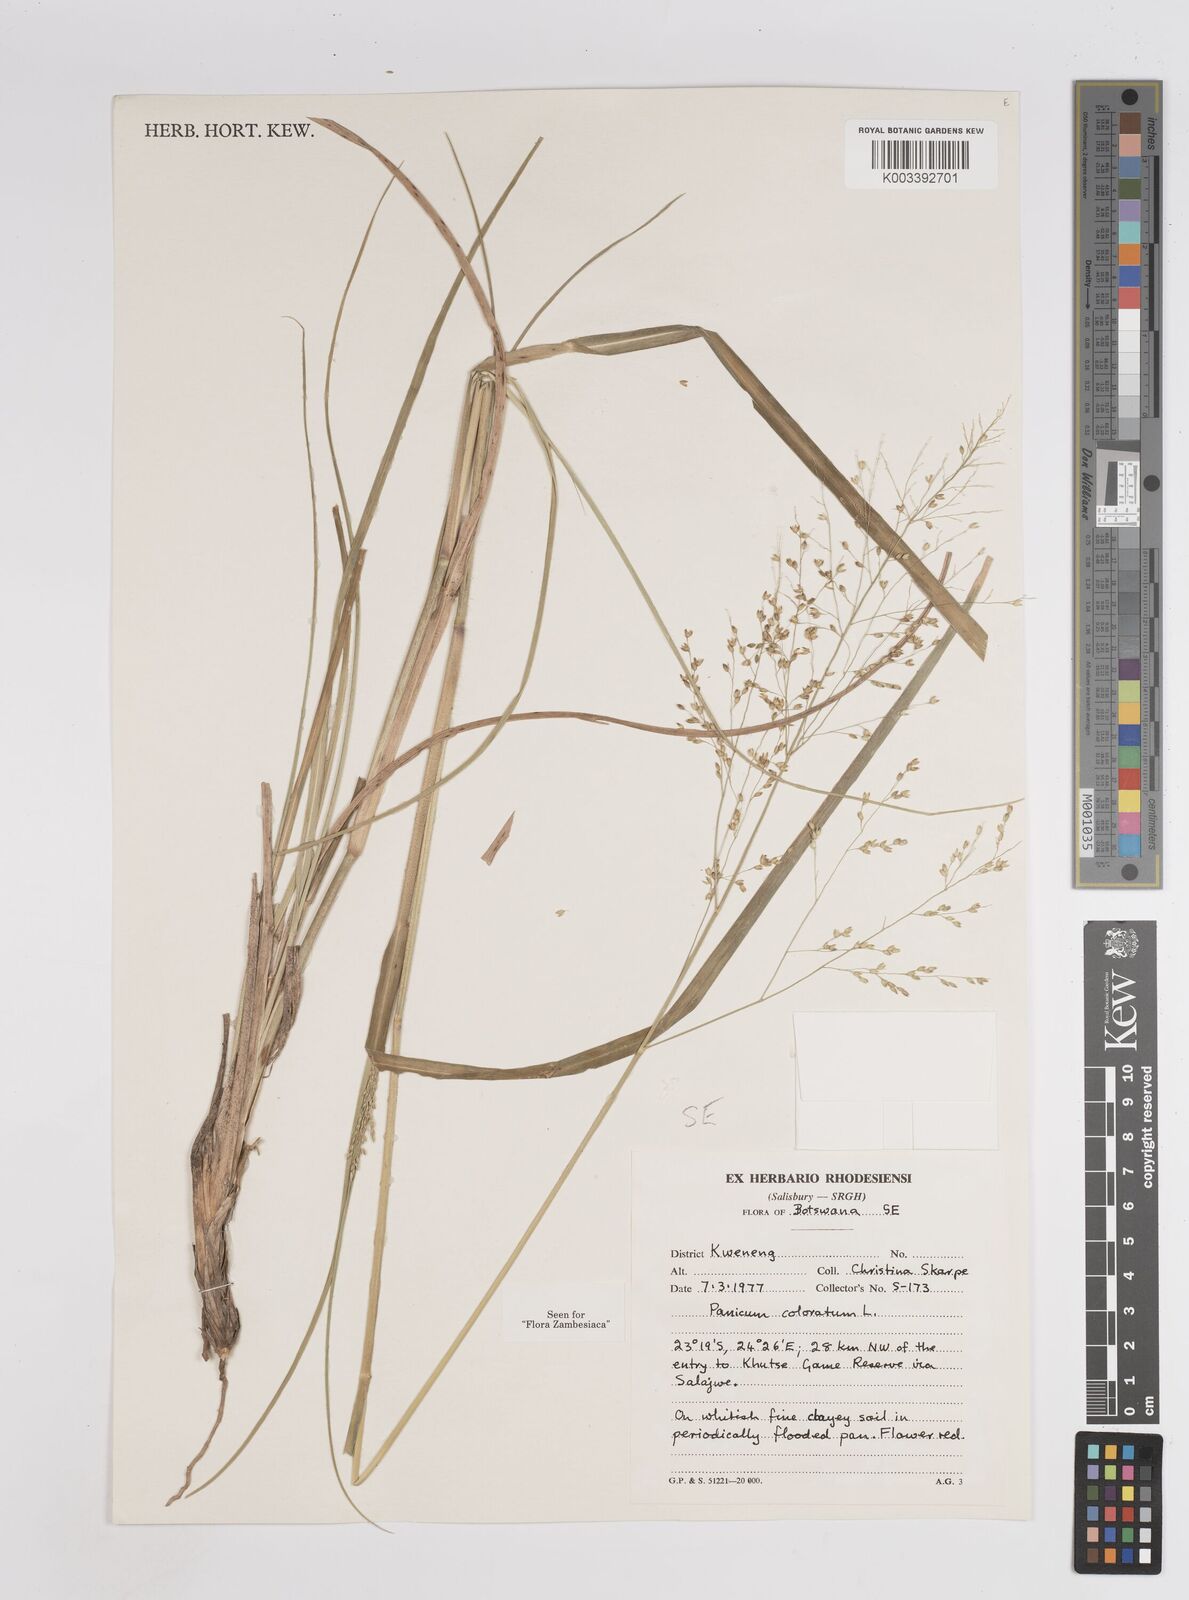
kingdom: Plantae
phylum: Tracheophyta
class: Liliopsida
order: Poales
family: Poaceae
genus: Panicum
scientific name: Panicum coloratum
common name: Kleingrass
